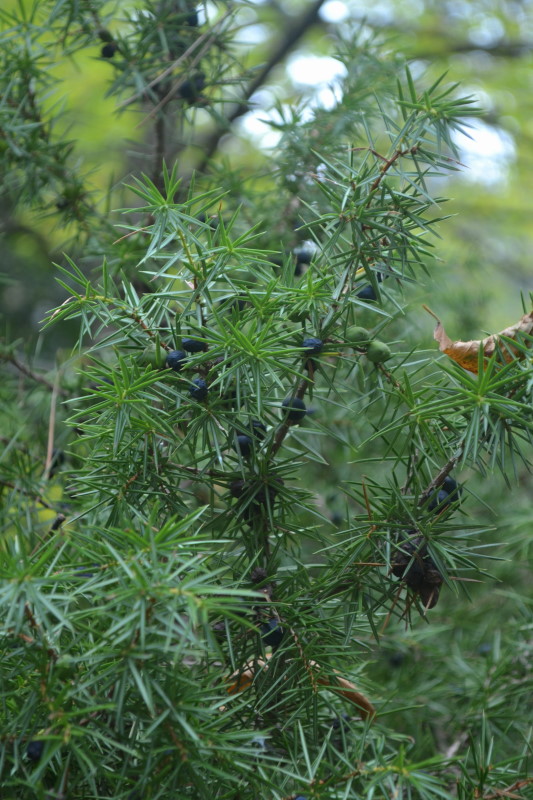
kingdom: Plantae
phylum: Tracheophyta
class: Pinopsida
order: Pinales
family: Cupressaceae
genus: Juniperus
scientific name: Juniperus communis
